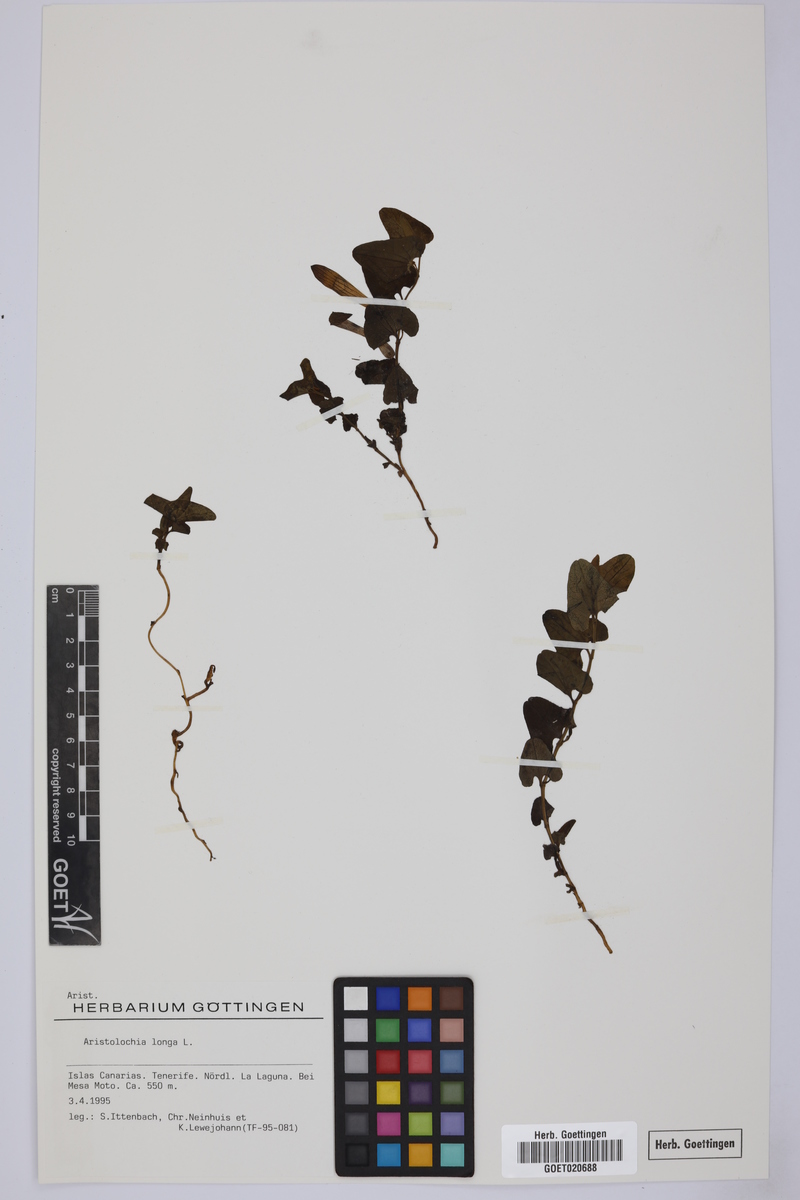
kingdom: Plantae
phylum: Tracheophyta
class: Magnoliopsida
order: Piperales
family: Aristolochiaceae
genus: Aristolochia
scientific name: Aristolochia fontanesii
